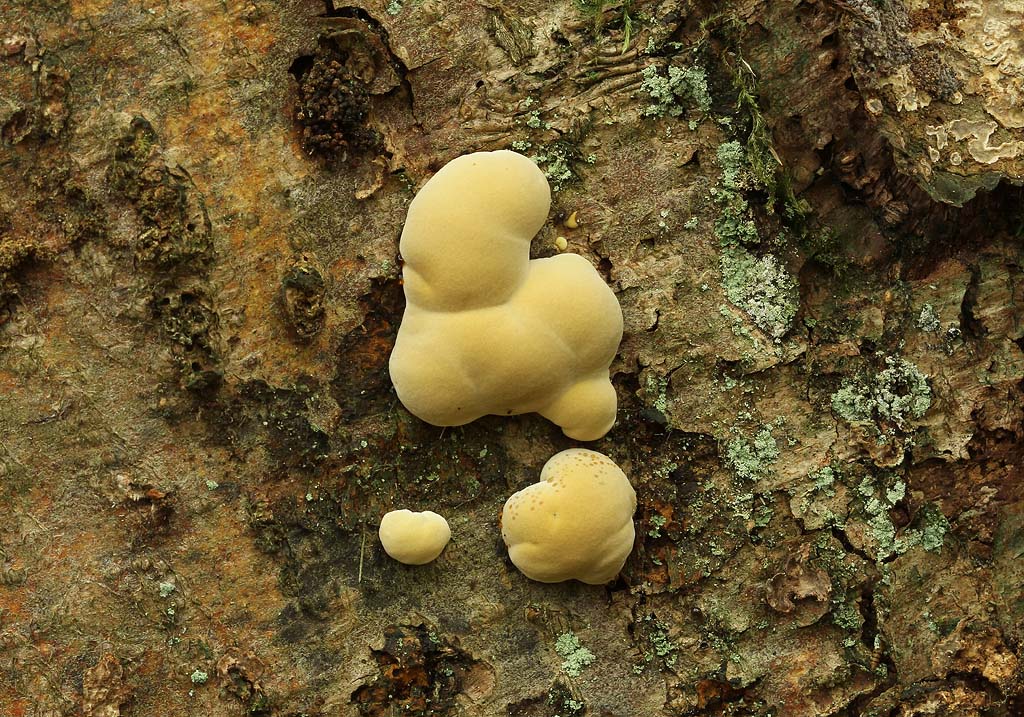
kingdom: Fungi
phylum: Basidiomycota
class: Agaricomycetes
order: Hymenochaetales
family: Hymenochaetaceae
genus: Xanthoporia
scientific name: Xanthoporia radiata
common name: elle-spejlporesvamp
